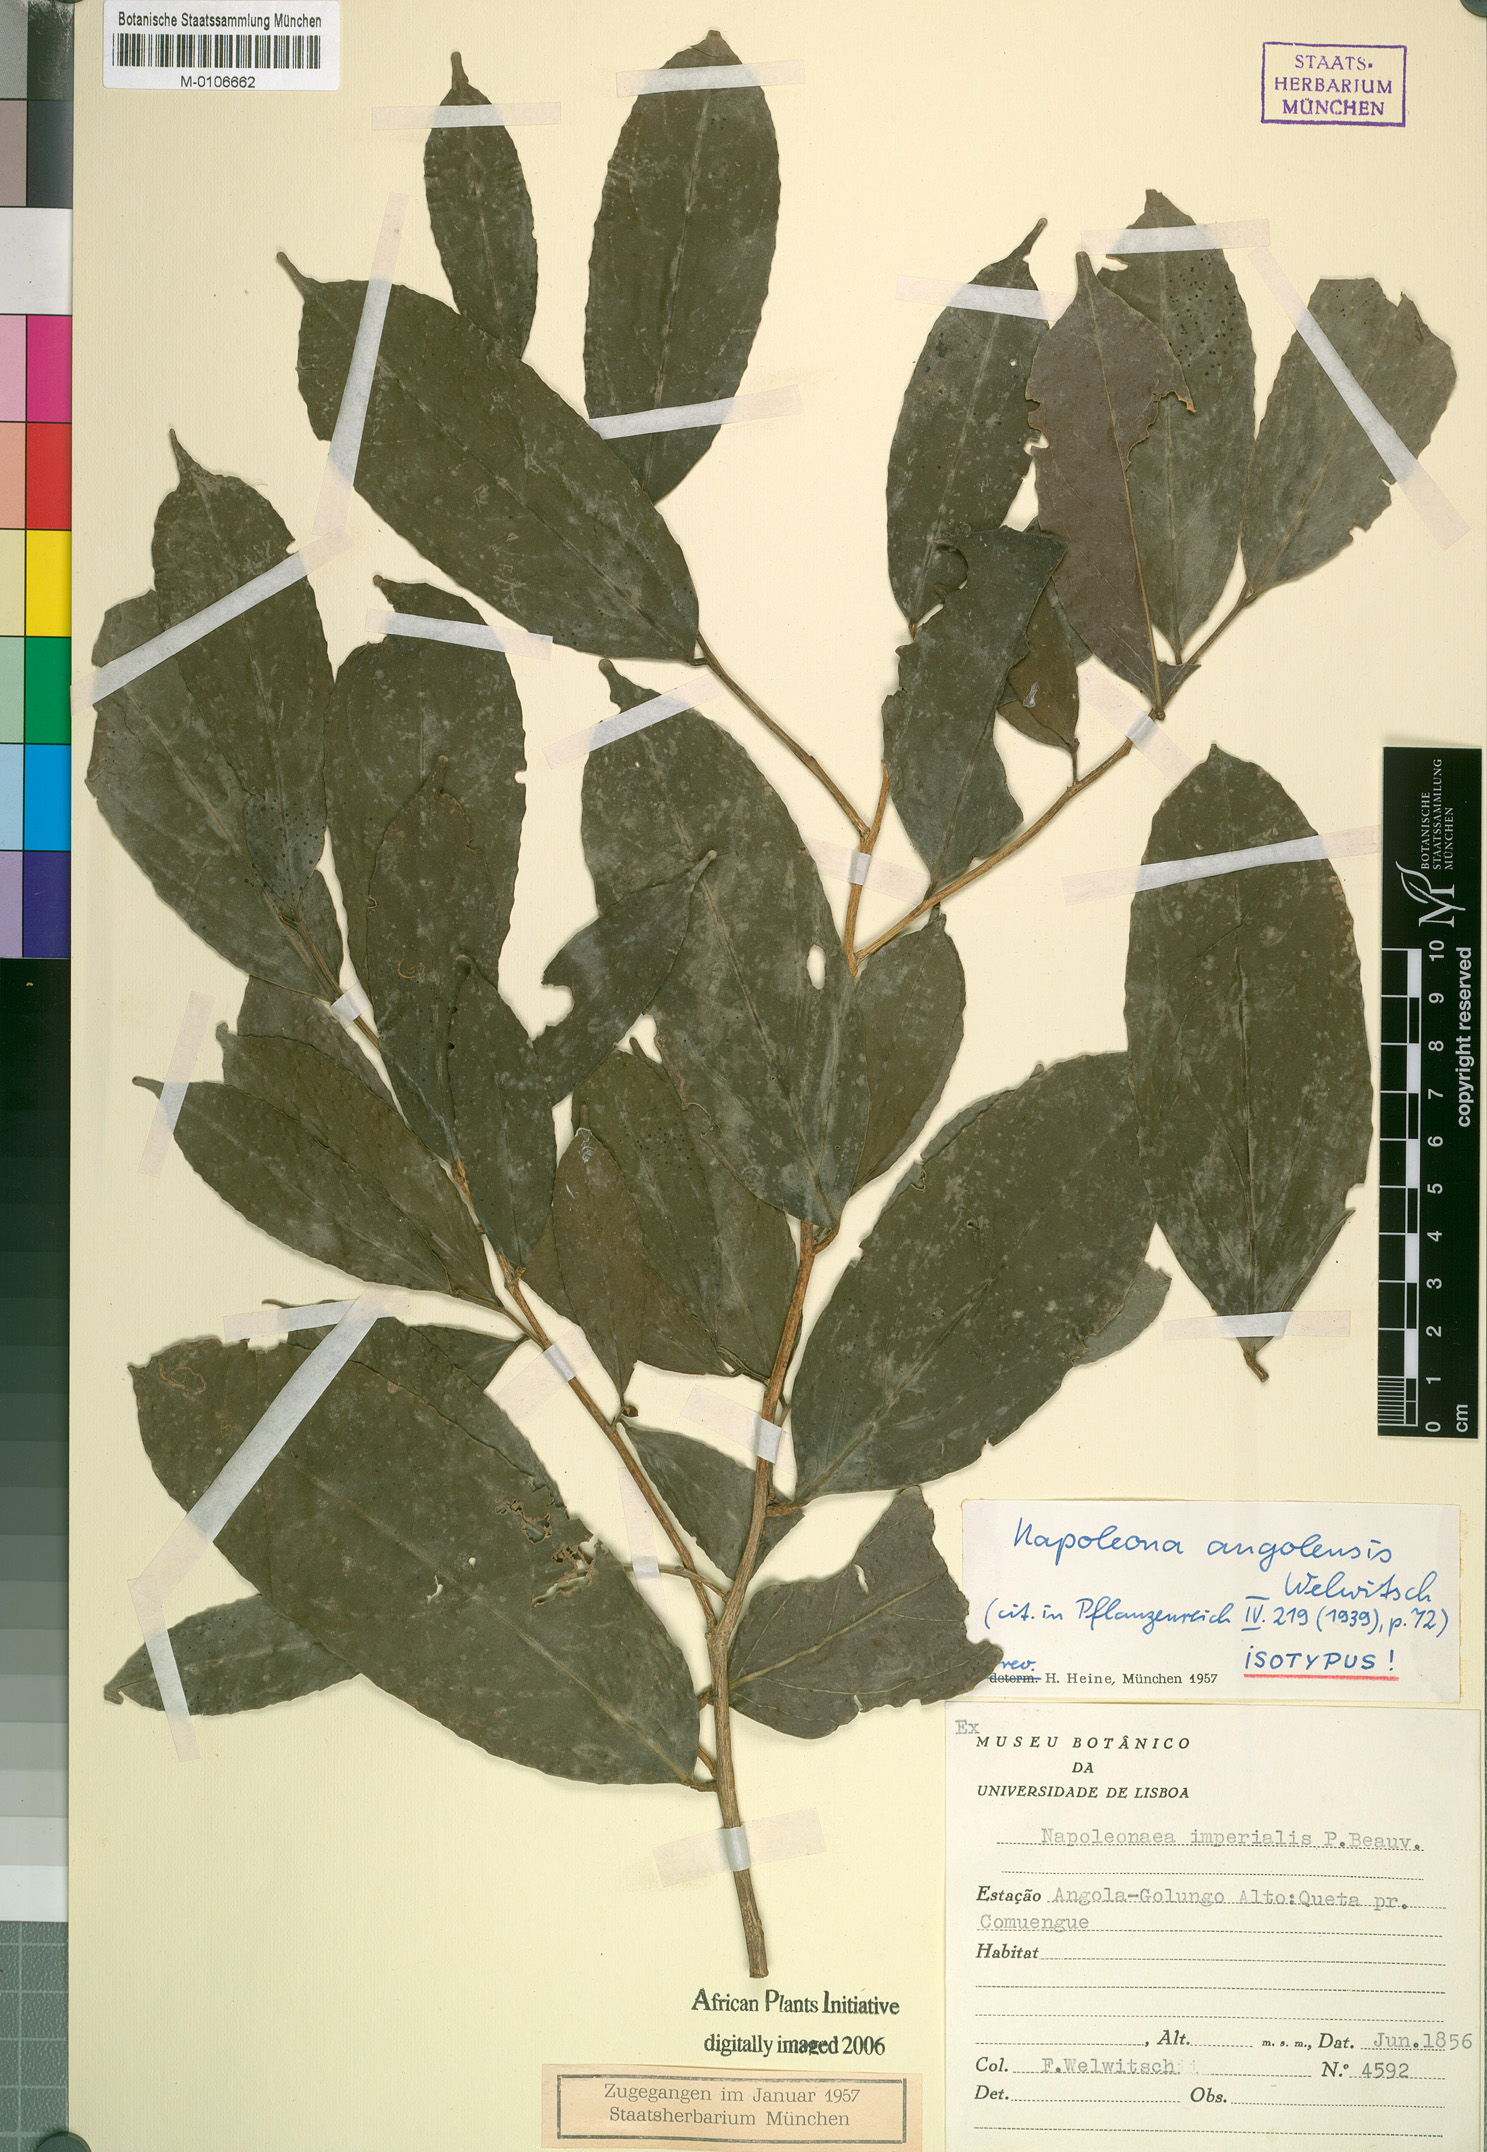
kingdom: Plantae
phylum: Tracheophyta
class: Magnoliopsida
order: Ericales
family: Lecythidaceae
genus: Napoleonaea
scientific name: Napoleonaea angolensis
